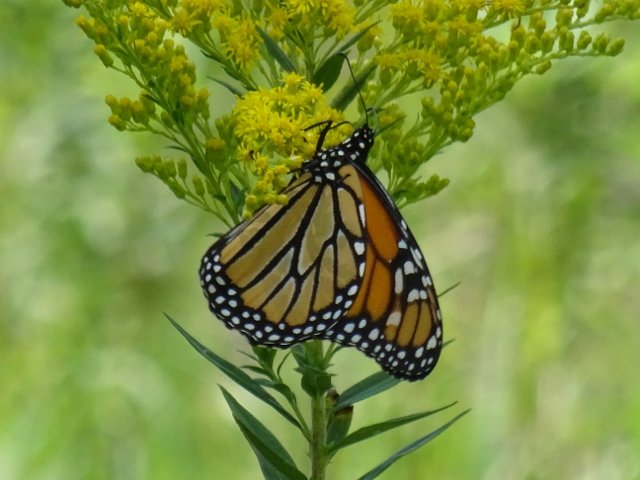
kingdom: Animalia
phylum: Arthropoda
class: Insecta
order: Lepidoptera
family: Nymphalidae
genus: Danaus
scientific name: Danaus plexippus
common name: Monarch
